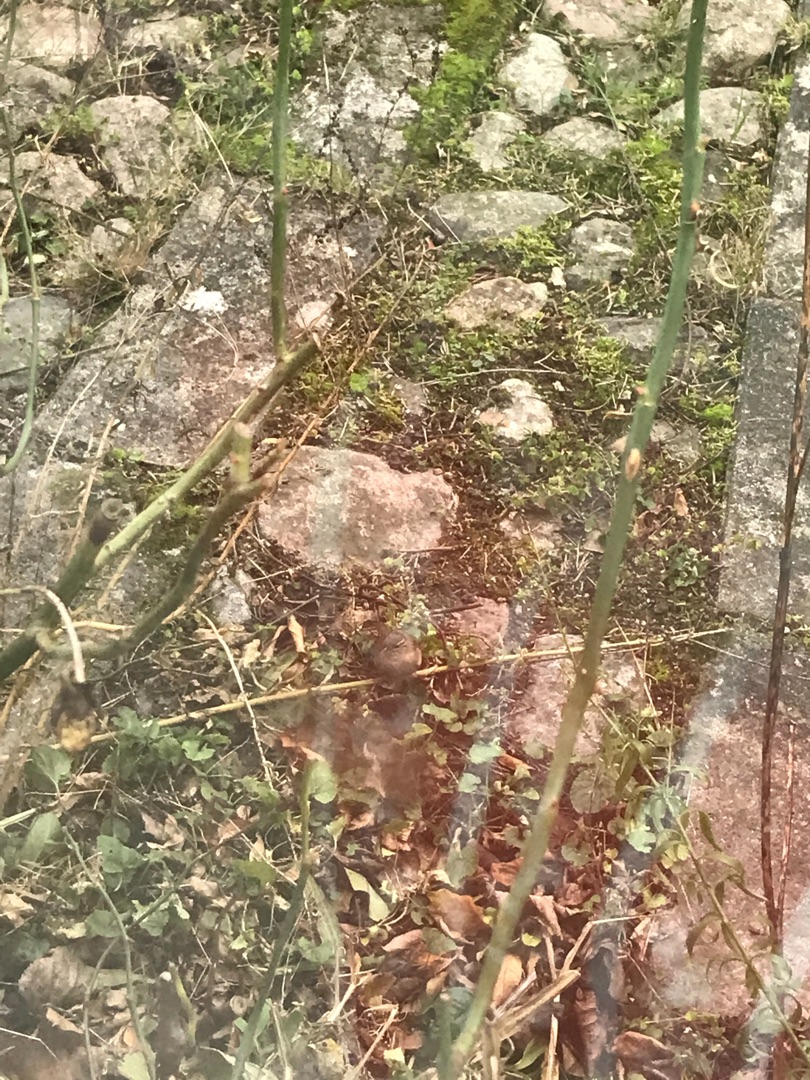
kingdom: Animalia
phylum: Chordata
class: Aves
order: Passeriformes
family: Troglodytidae
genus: Troglodytes
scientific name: Troglodytes troglodytes
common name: Gærdesmutte
